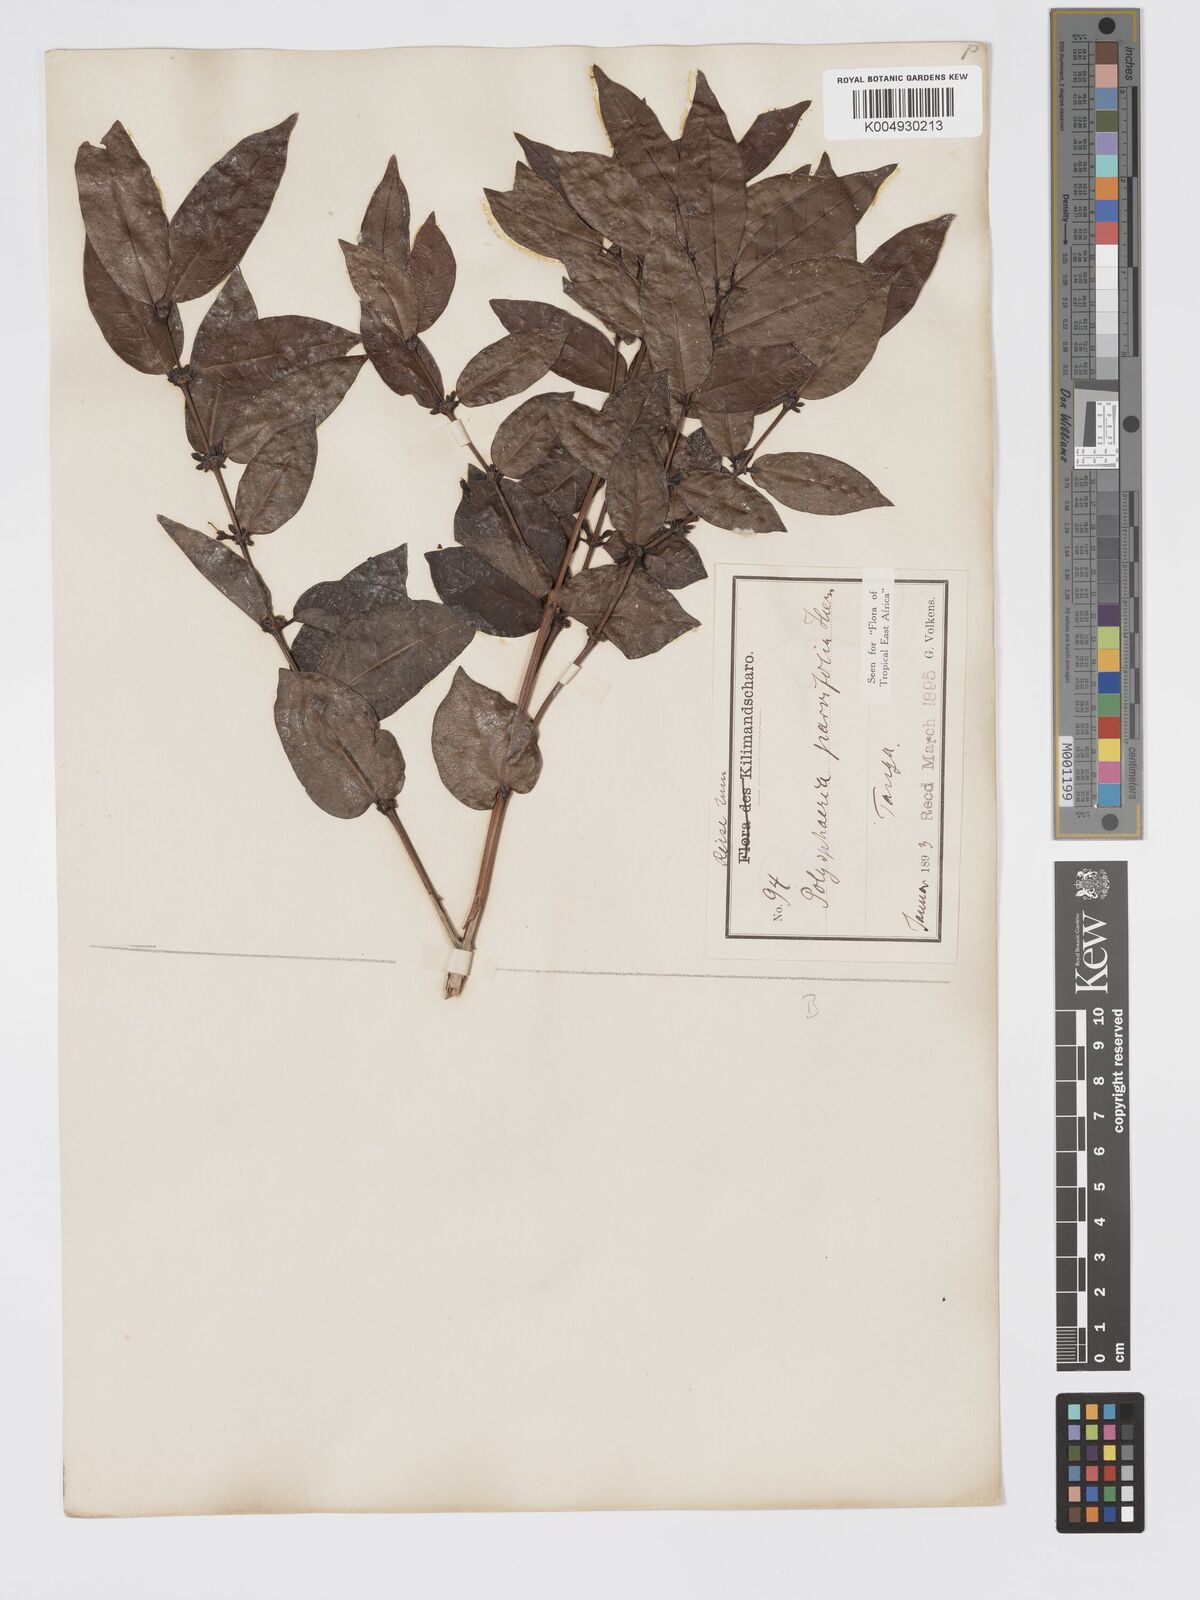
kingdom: Plantae
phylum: Tracheophyta
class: Magnoliopsida
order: Gentianales
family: Rubiaceae
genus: Polysphaeria
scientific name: Polysphaeria parvifolia
